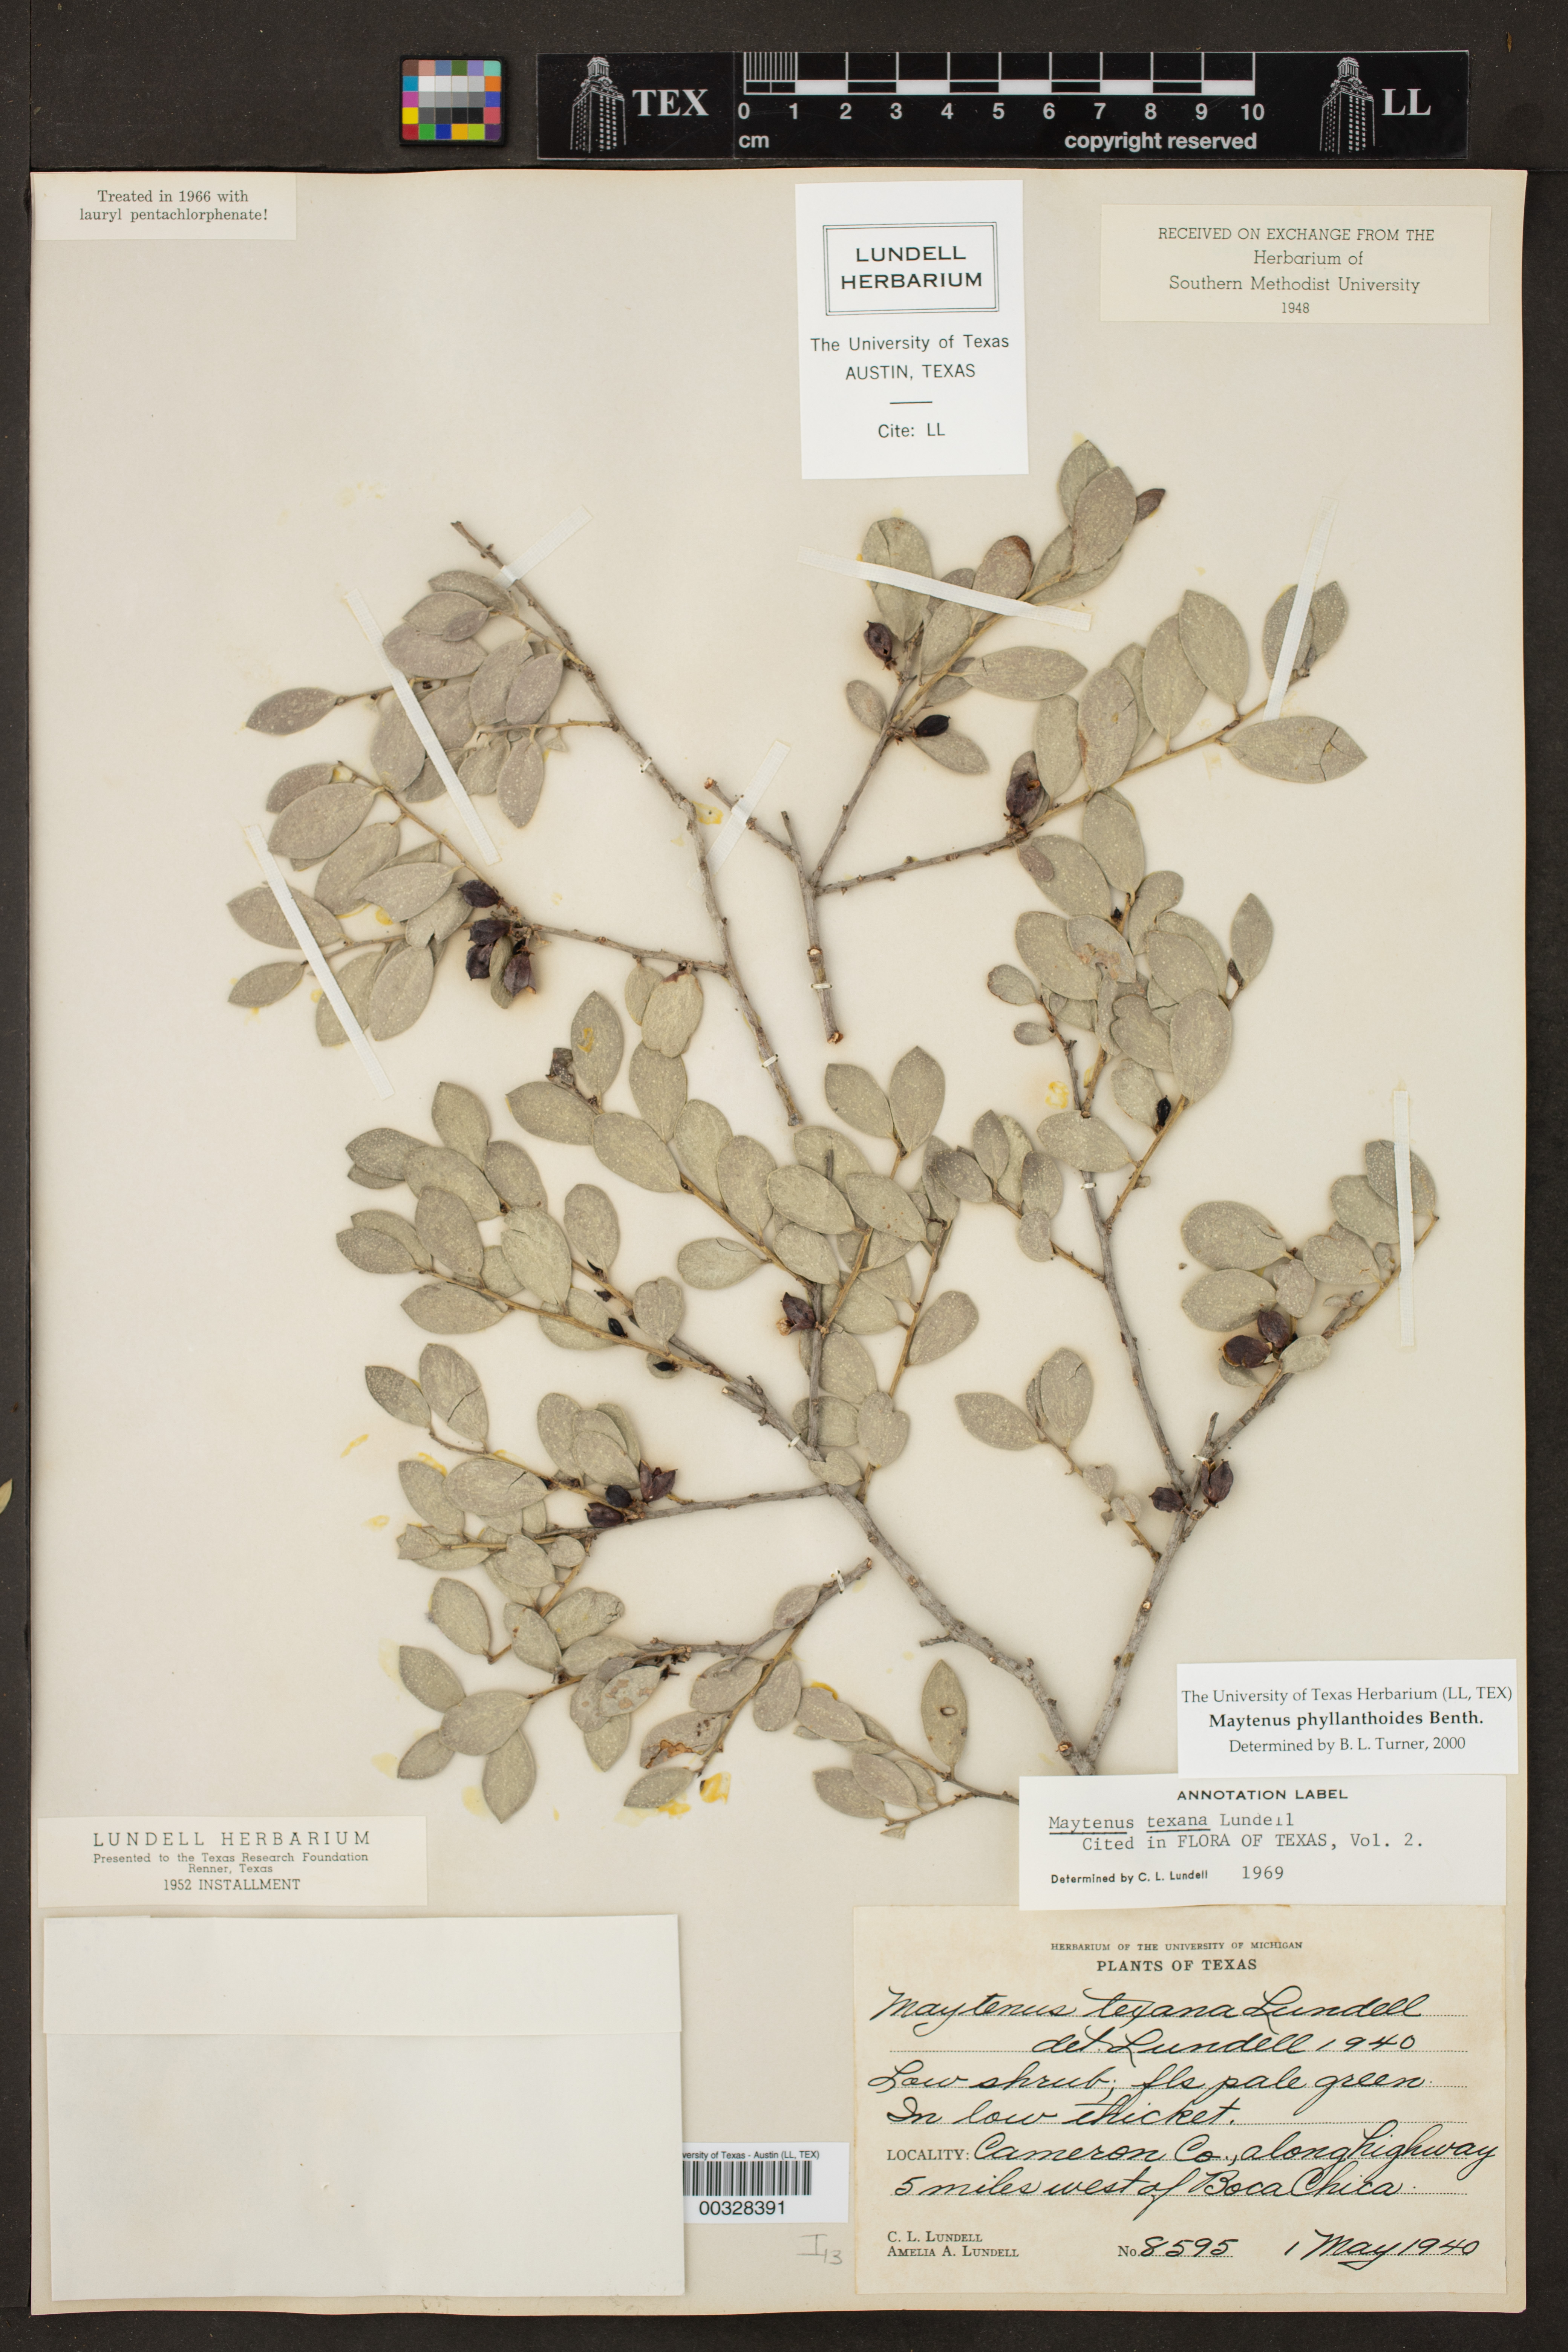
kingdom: Plantae
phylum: Tracheophyta
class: Magnoliopsida
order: Celastrales
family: Celastraceae
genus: Tricerma
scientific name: Tricerma phyllanthoides
